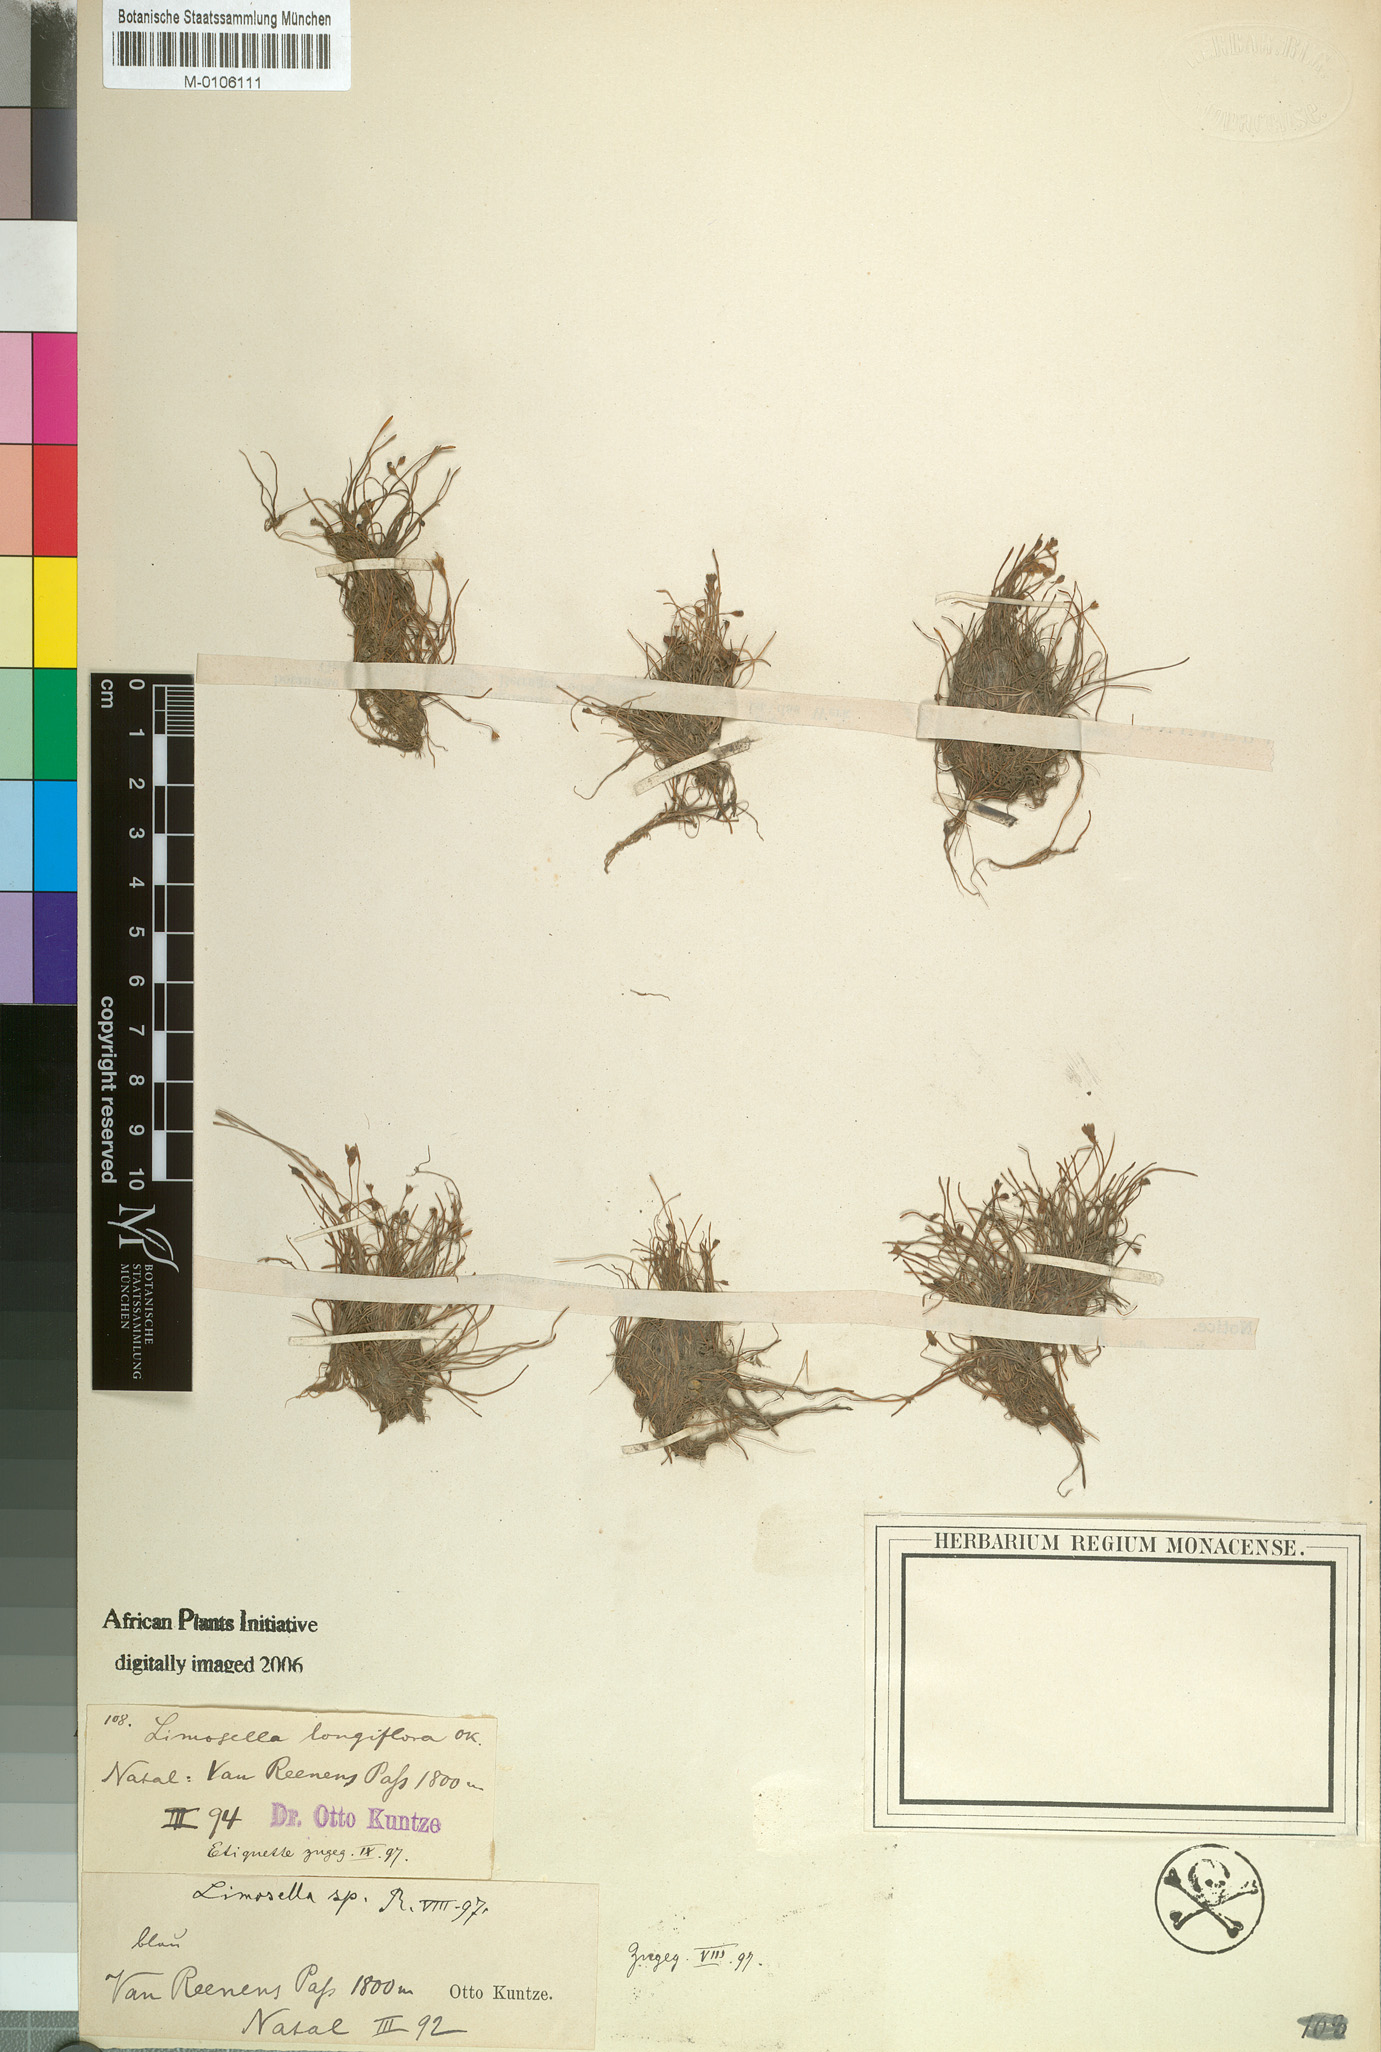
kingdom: Plantae
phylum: Tracheophyta
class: Magnoliopsida
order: Lamiales
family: Scrophulariaceae
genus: Limosella
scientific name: Limosella longiflora
